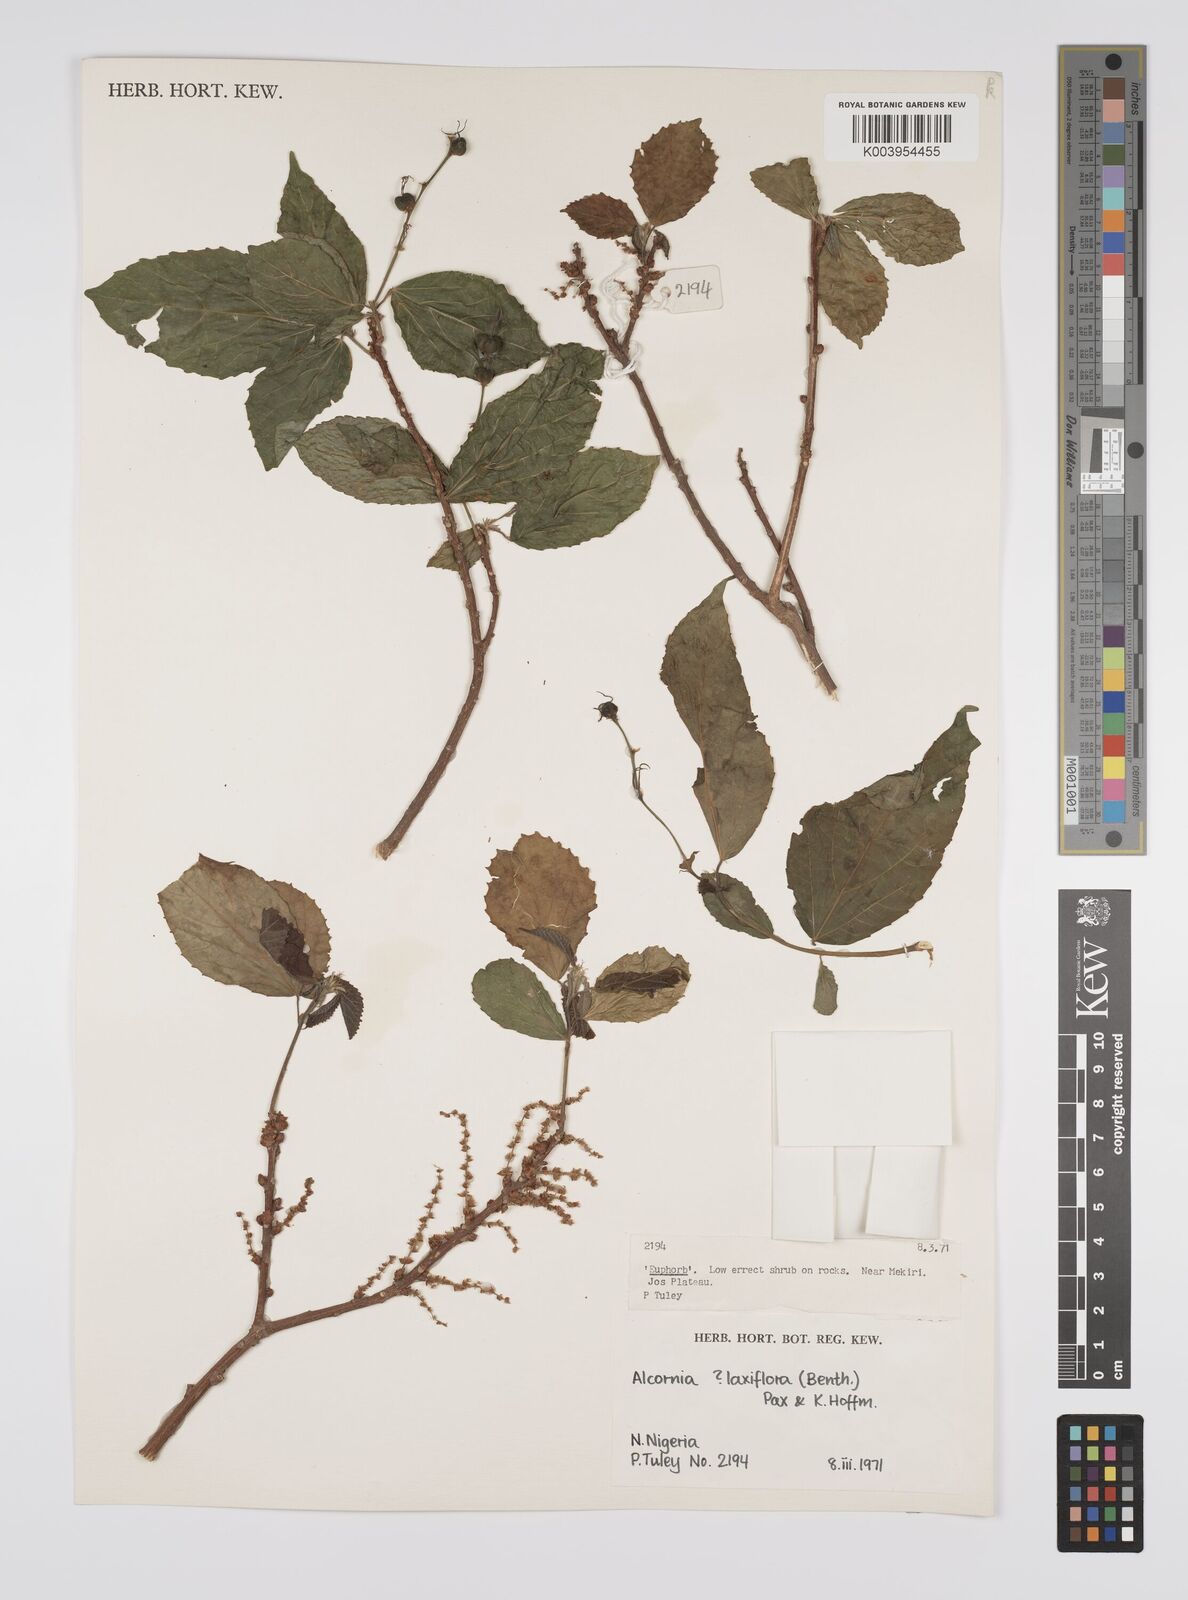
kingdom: Plantae
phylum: Tracheophyta
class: Magnoliopsida
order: Malpighiales
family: Euphorbiaceae
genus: Alchornea
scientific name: Alchornea laxiflora
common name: Lowveld bead-string
